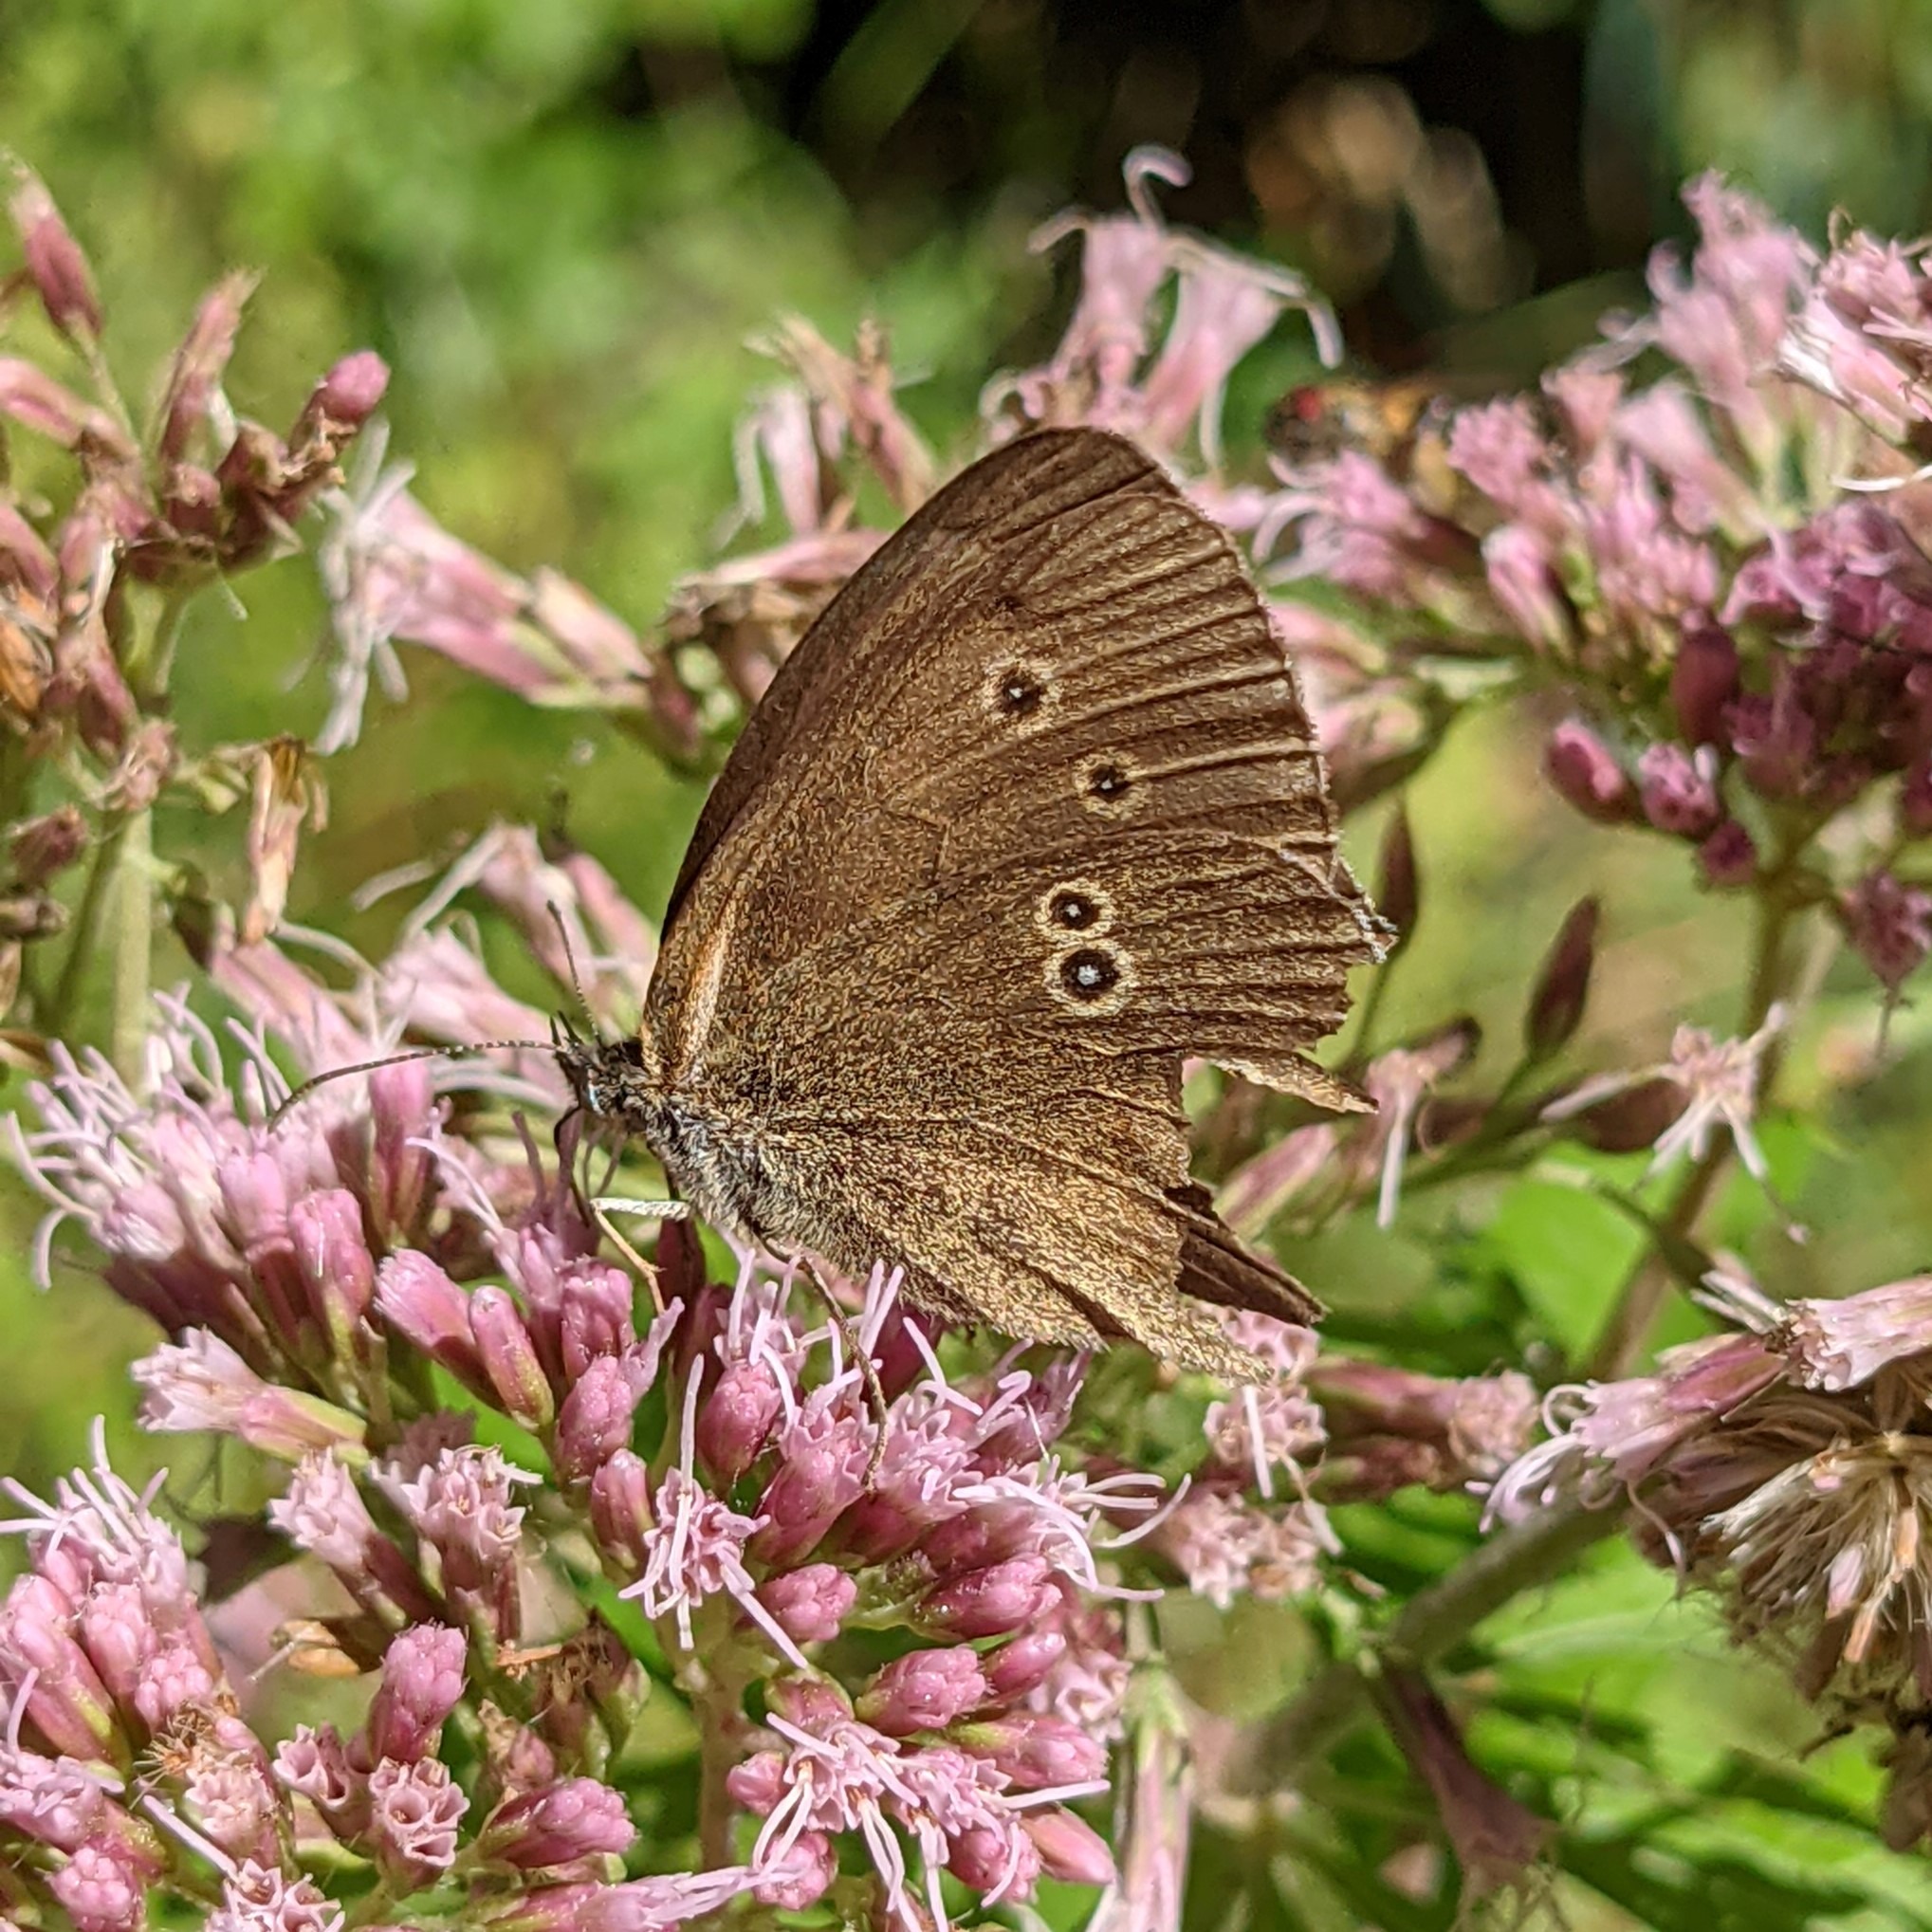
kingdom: Animalia
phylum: Arthropoda
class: Insecta
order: Lepidoptera
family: Nymphalidae
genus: Aphantopus
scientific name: Aphantopus hyperantus
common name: Engrandøje
